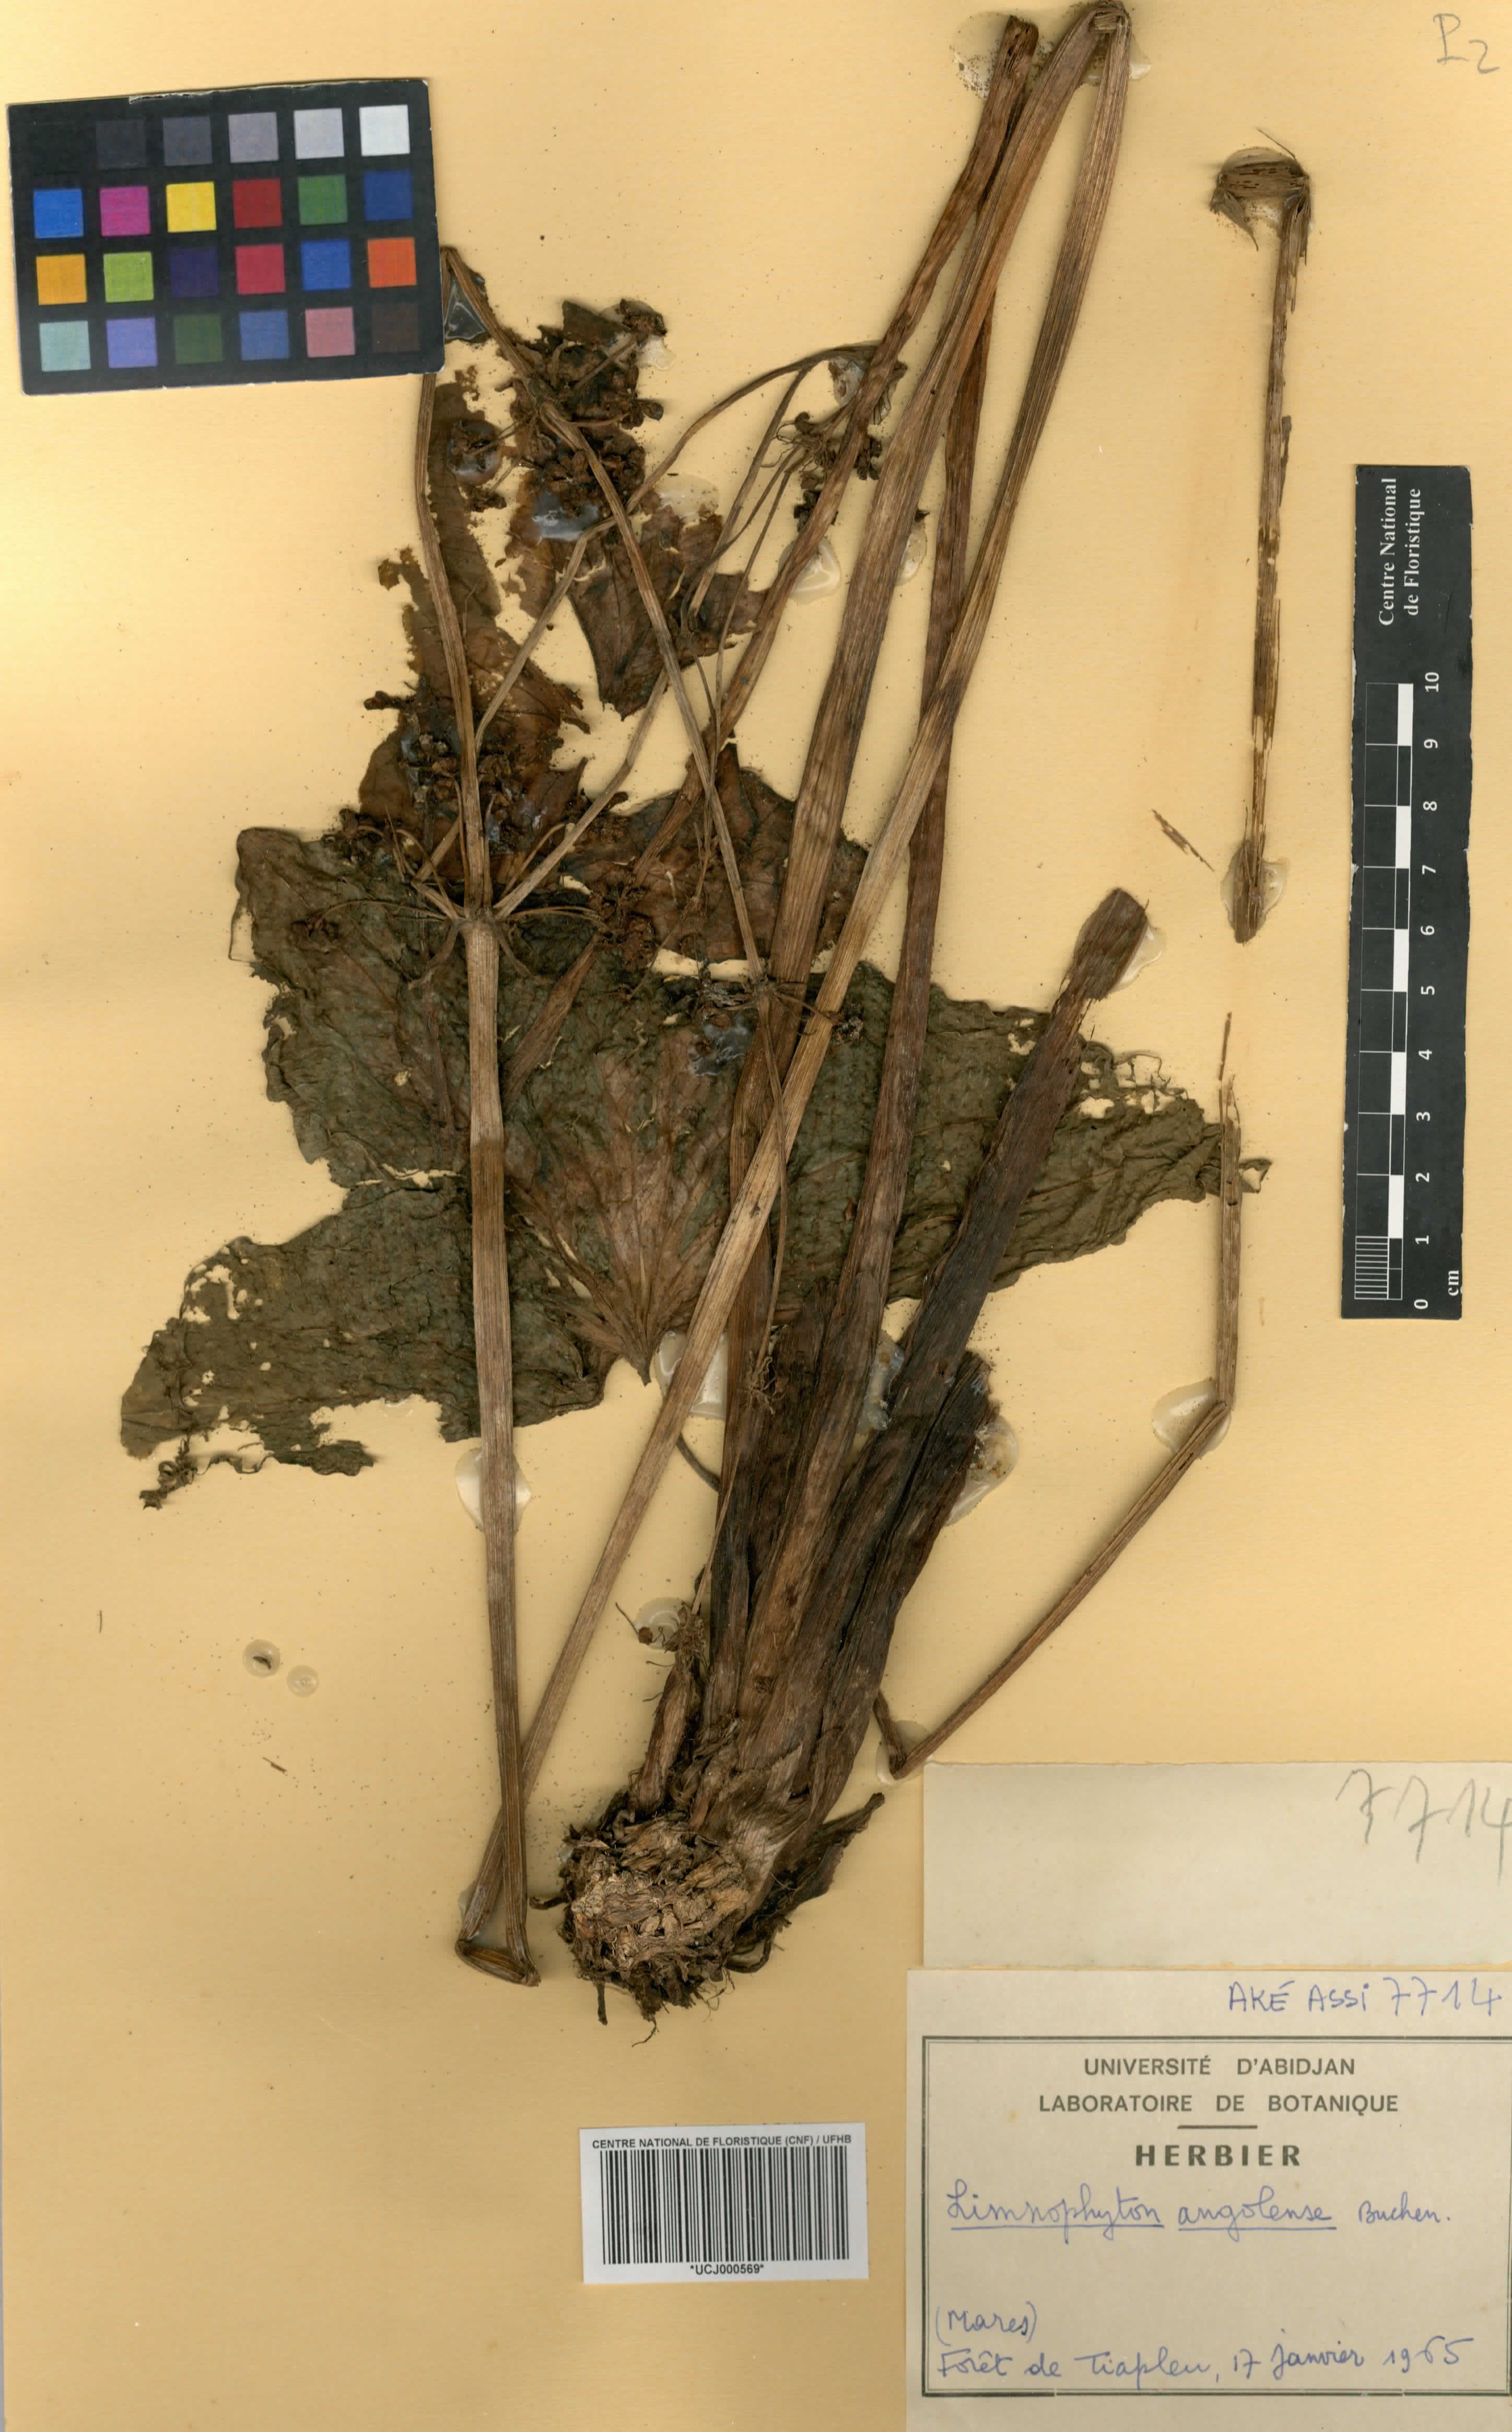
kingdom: Plantae
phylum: Tracheophyta
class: Liliopsida
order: Alismatales
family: Alismataceae
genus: Limnophyton
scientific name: Limnophyton angolense
